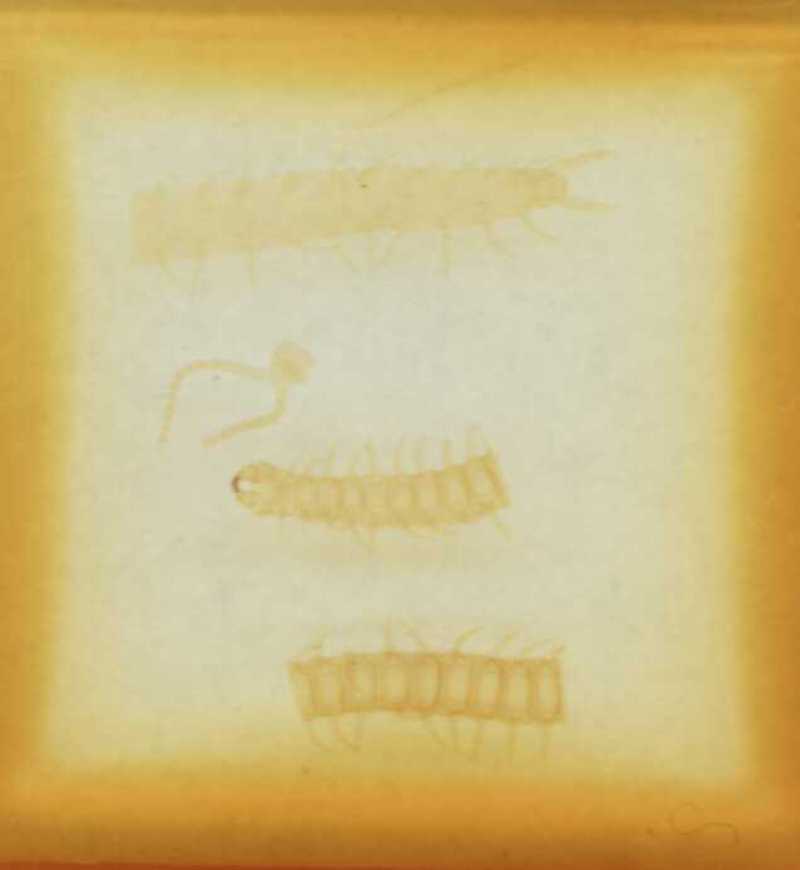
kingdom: Animalia
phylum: Arthropoda
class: Chilopoda
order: Geophilomorpha
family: Geophilidae
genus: Tuoba
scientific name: Tuoba poseidonis
